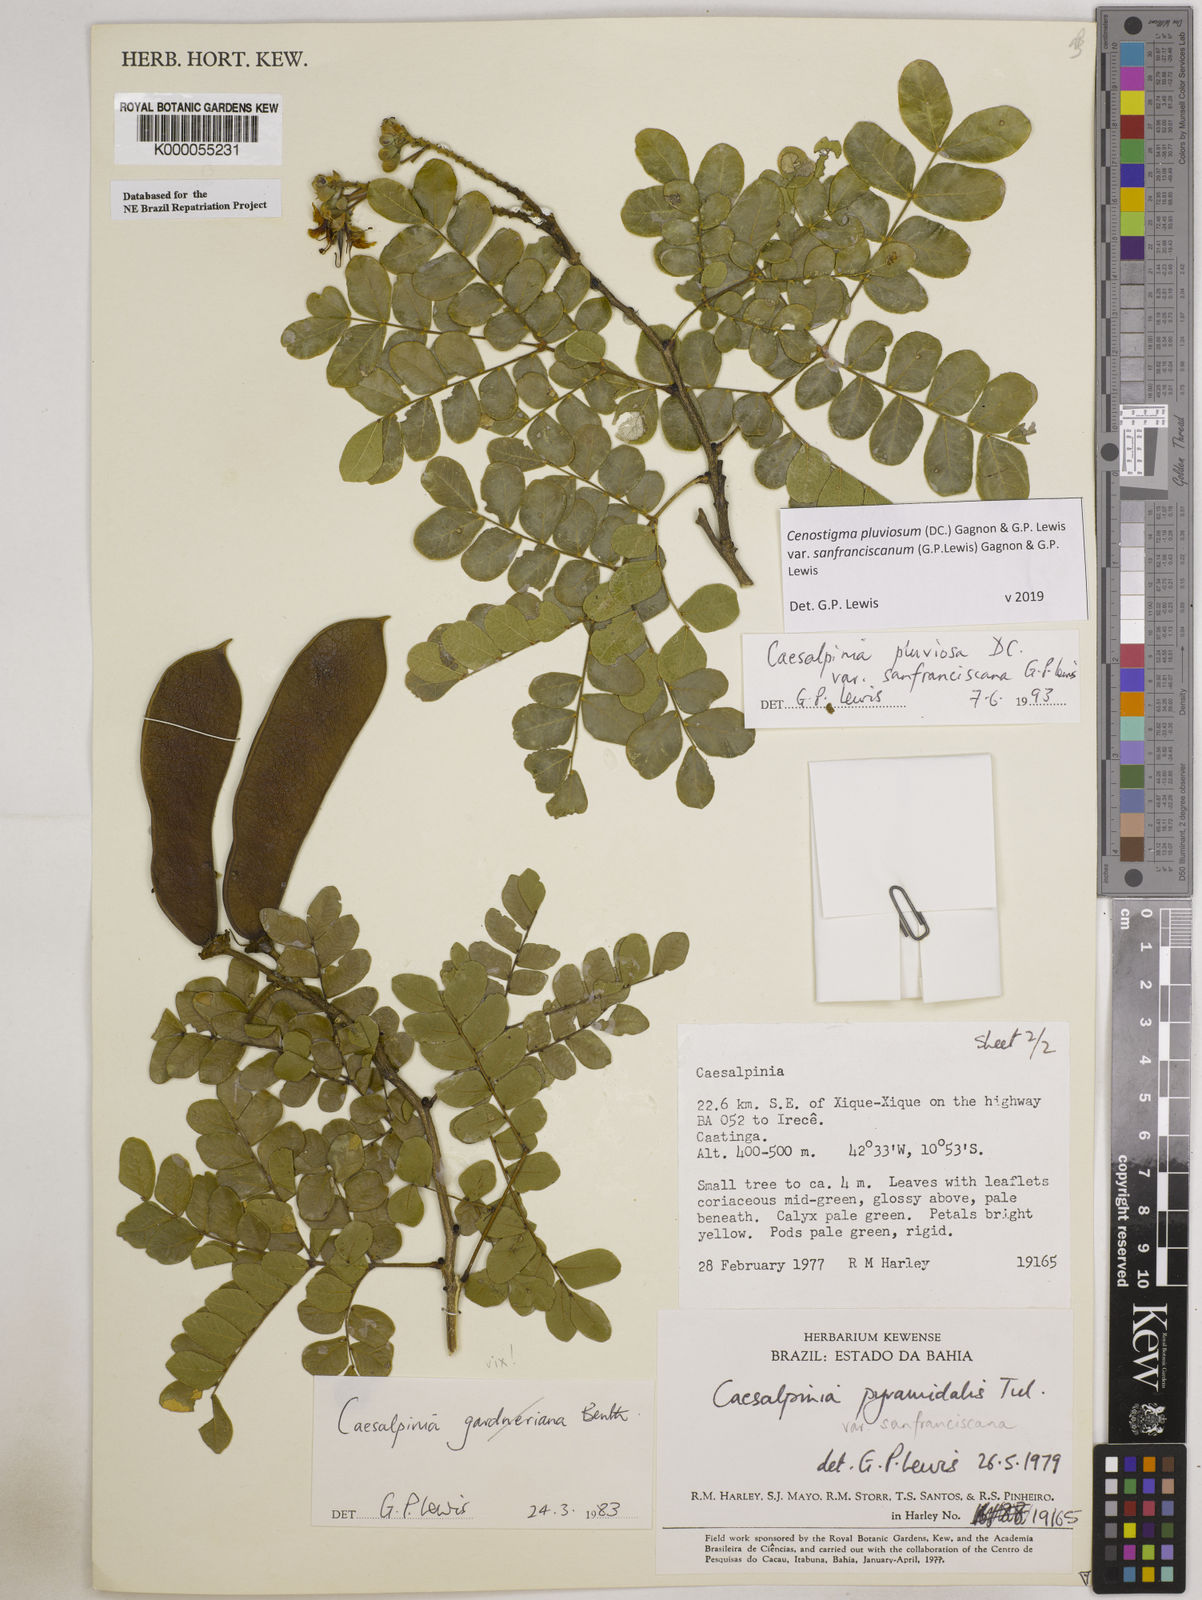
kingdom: Plantae
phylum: Tracheophyta
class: Magnoliopsida
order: Fabales
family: Fabaceae
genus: Cenostigma
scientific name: Cenostigma pluviosum
